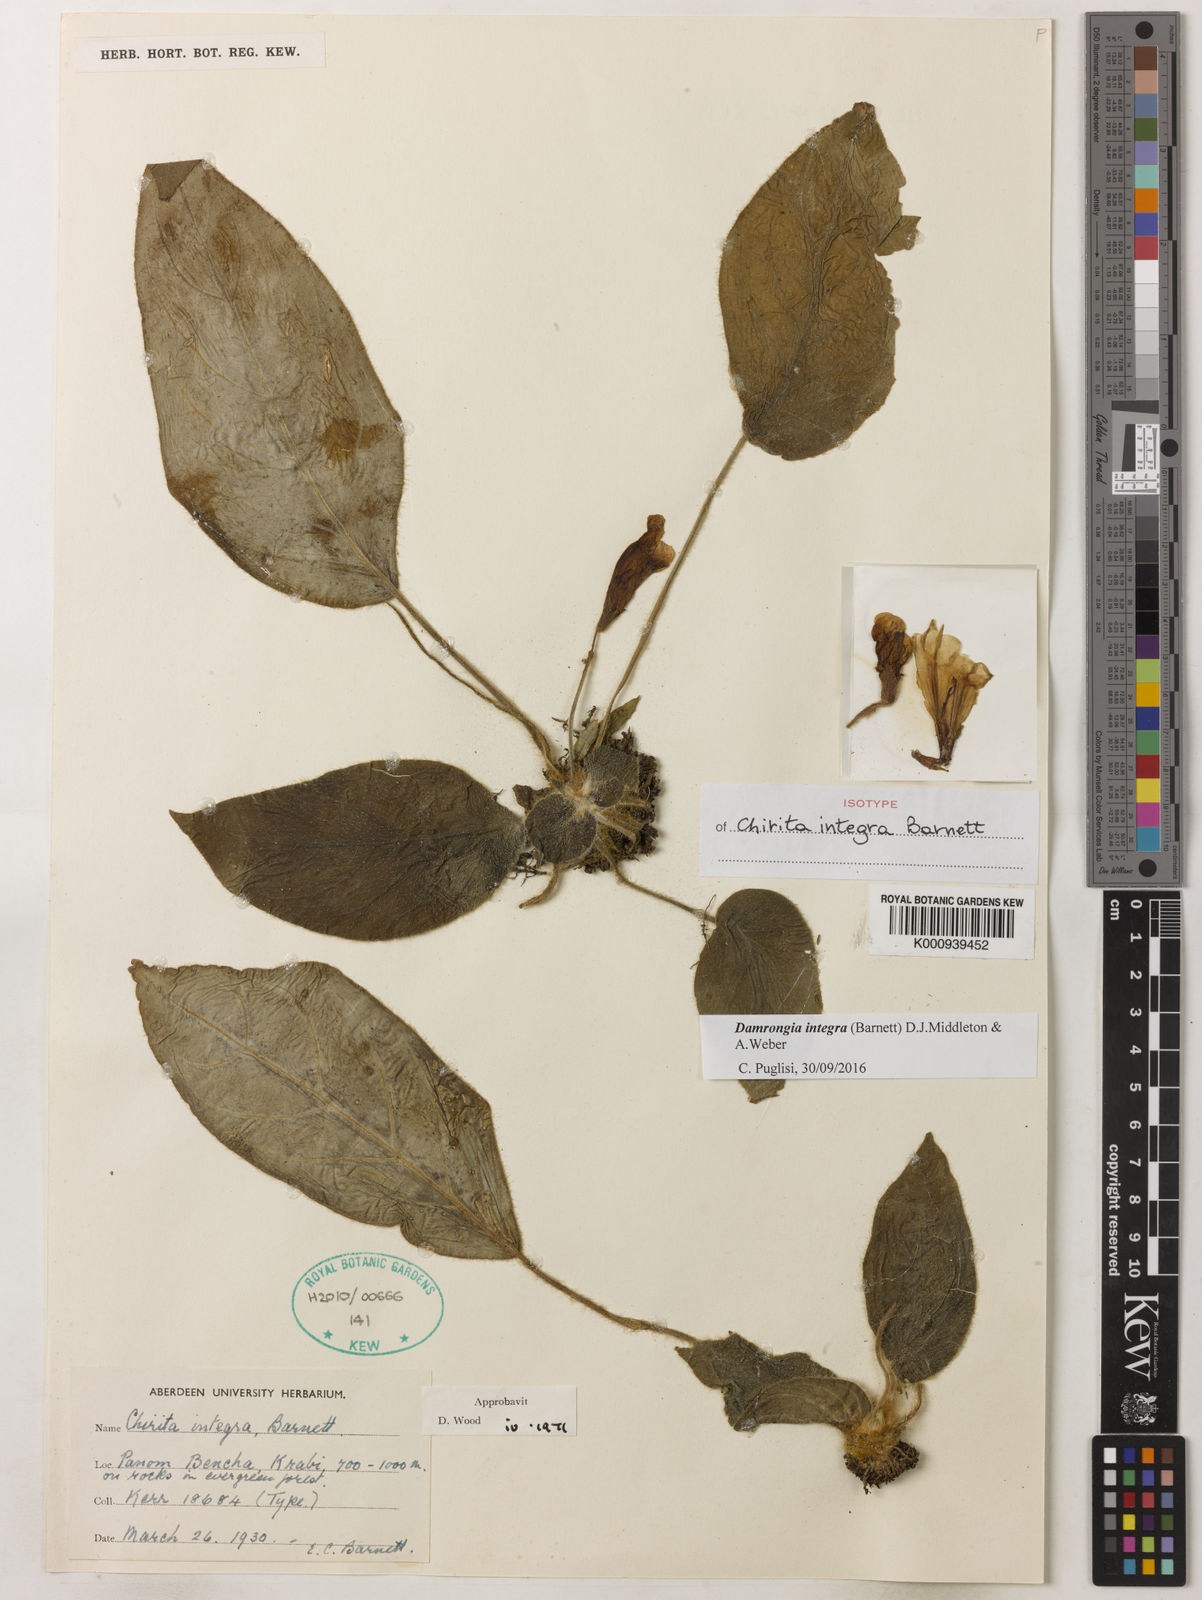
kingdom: Plantae
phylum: Tracheophyta
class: Magnoliopsida
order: Lamiales
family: Gesneriaceae
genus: Damrongia
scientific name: Damrongia integra
